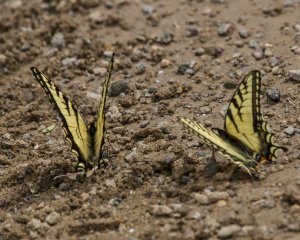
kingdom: Animalia
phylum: Arthropoda
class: Insecta
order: Lepidoptera
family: Papilionidae
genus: Pterourus
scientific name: Pterourus canadensis
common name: Canadian Tiger Swallowtail
